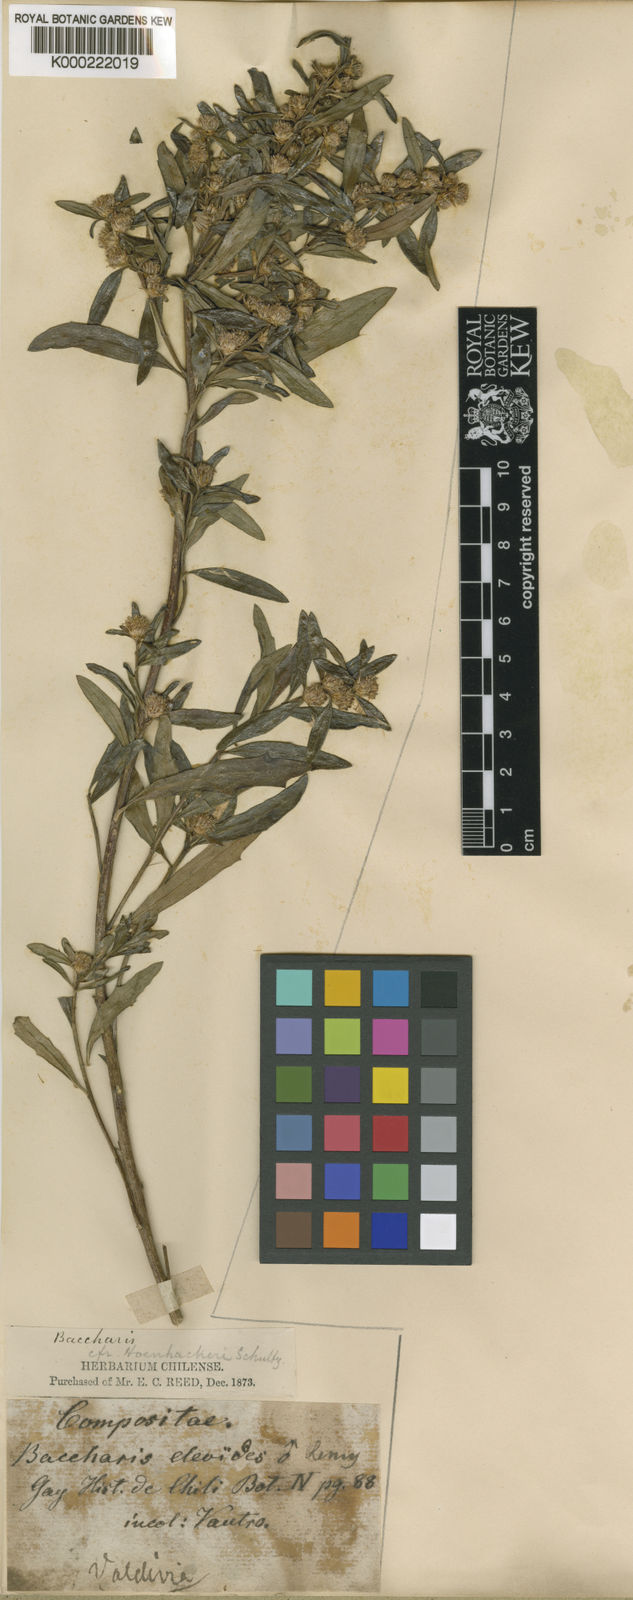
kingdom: Plantae
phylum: Tracheophyta
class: Magnoliopsida
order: Asterales
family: Asteraceae
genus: Baccharis
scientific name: Baccharis elaeoides
